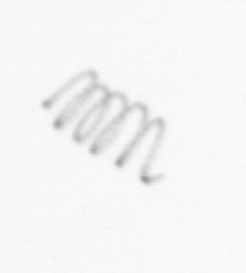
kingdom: Chromista
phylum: Ochrophyta
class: Bacillariophyceae
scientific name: Bacillariophyceae
